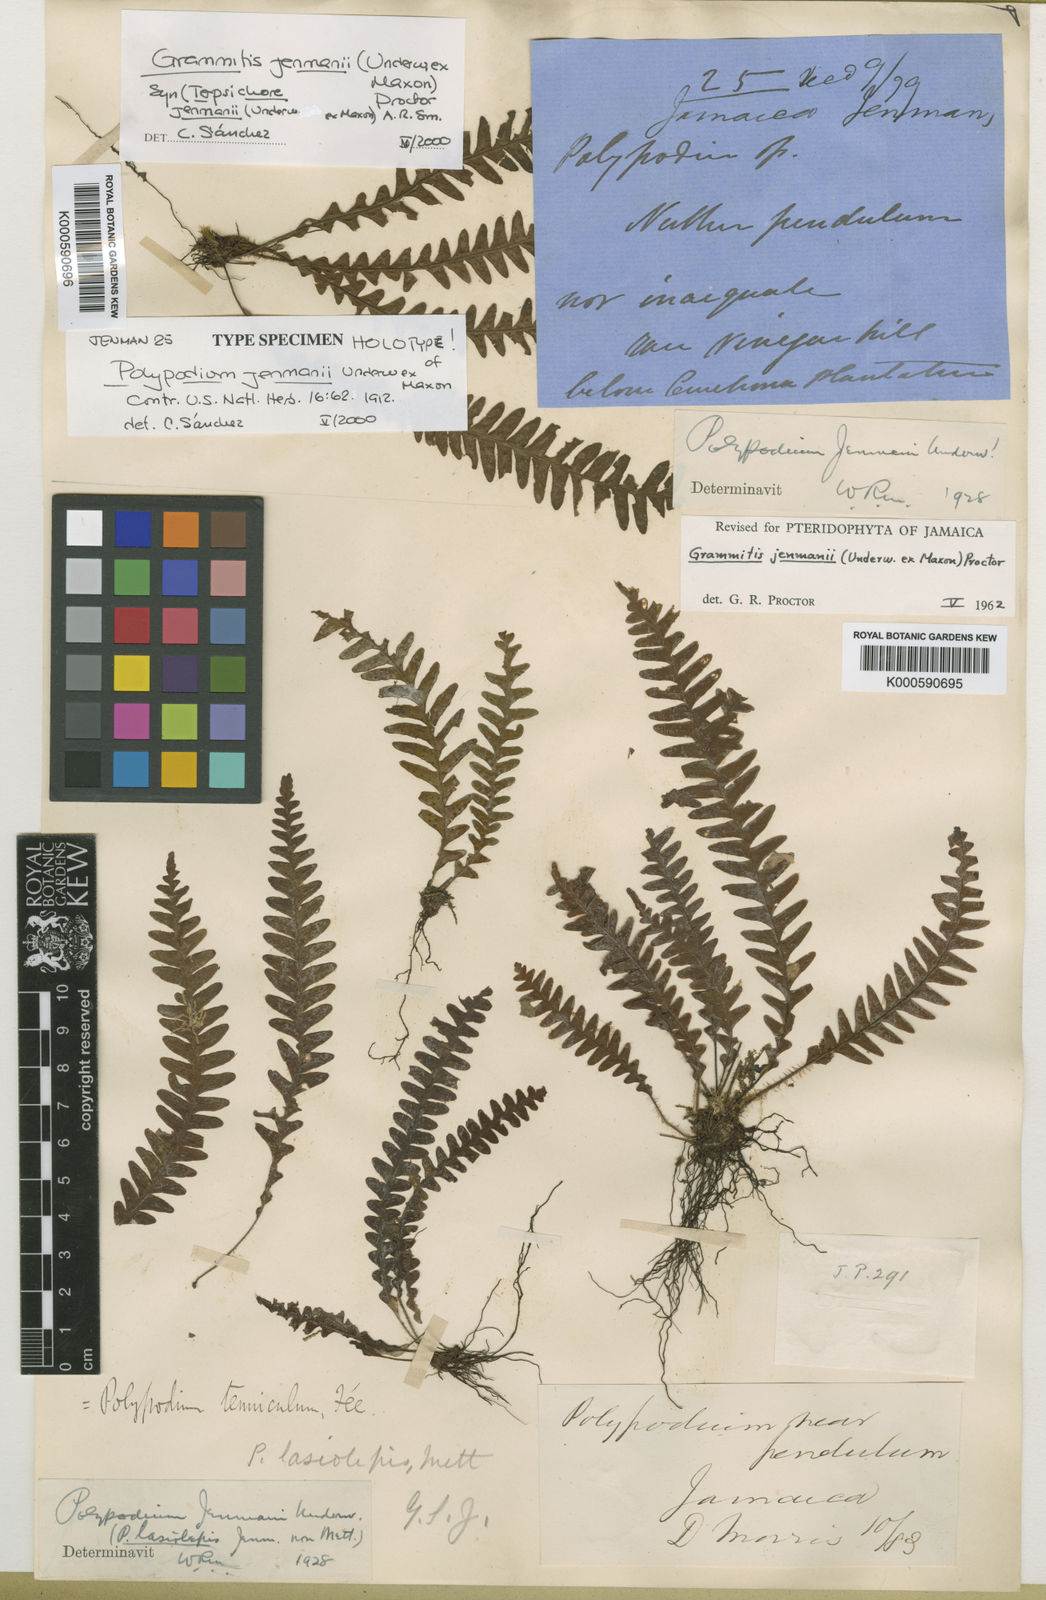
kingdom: Plantae
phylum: Tracheophyta
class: Polypodiopsida
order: Polypodiales
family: Polypodiaceae
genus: Terpsichore
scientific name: Terpsichore jenmanii
